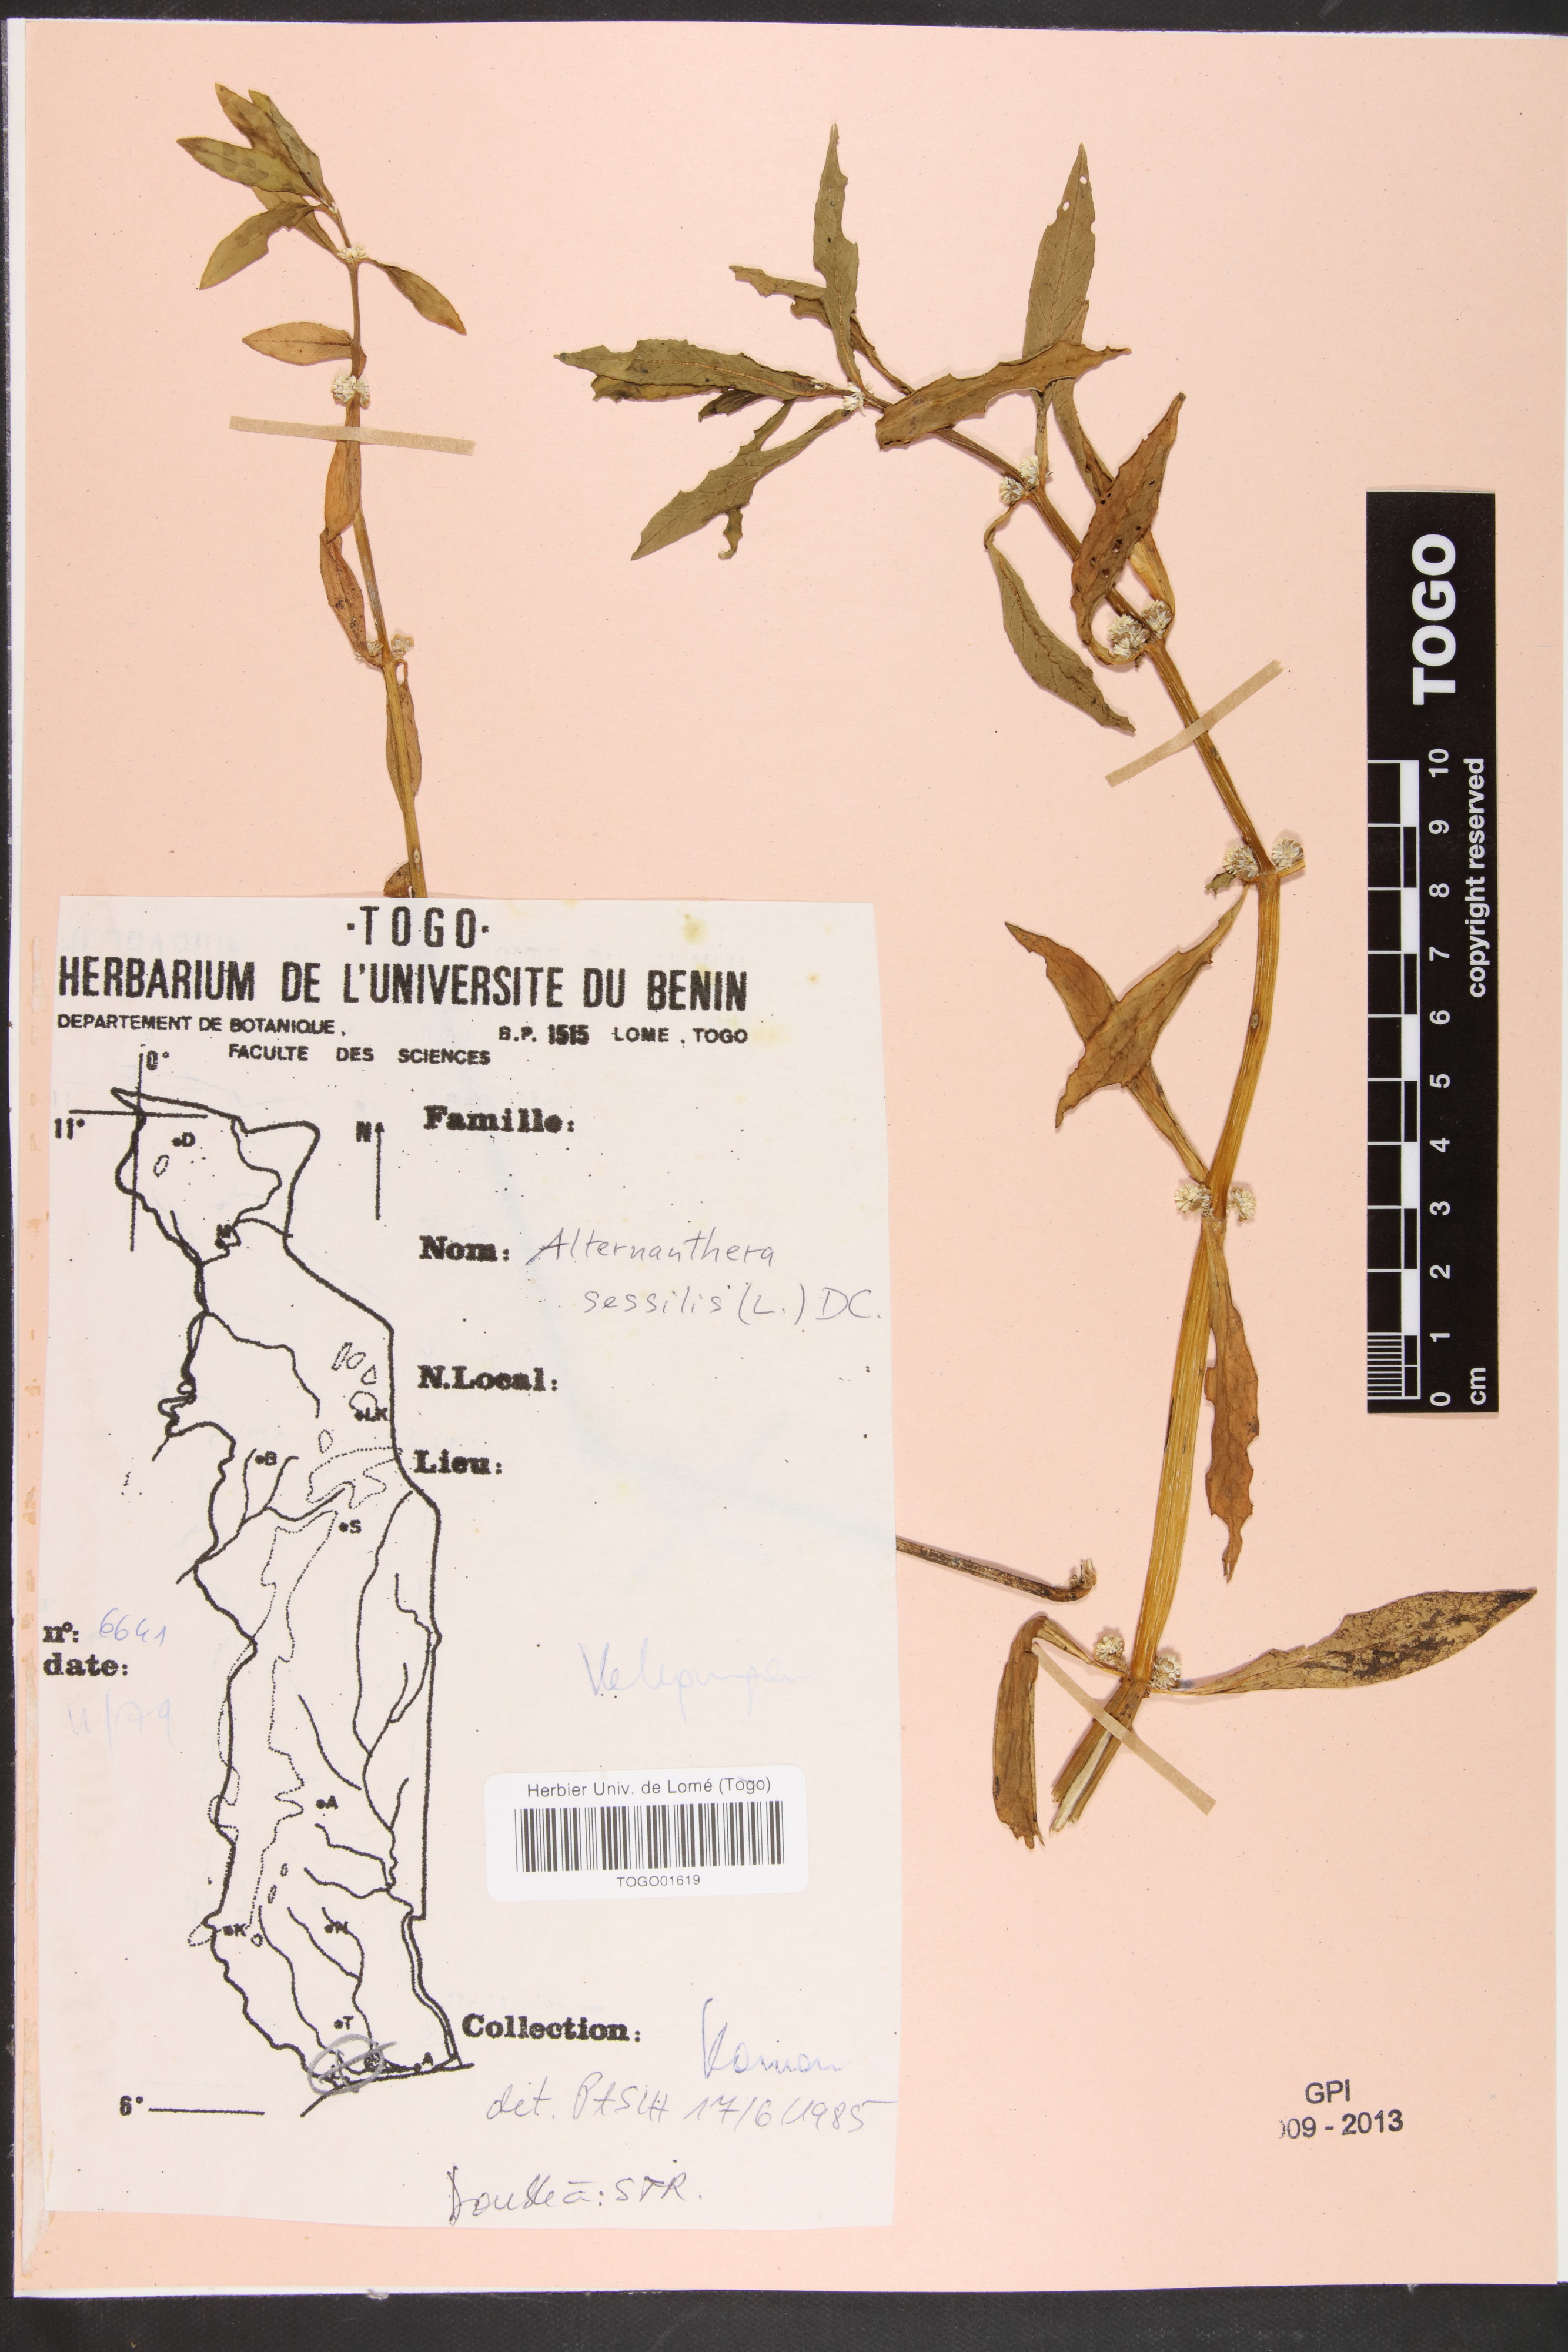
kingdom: Plantae
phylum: Tracheophyta
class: Magnoliopsida
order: Caryophyllales
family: Amaranthaceae
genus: Alternanthera
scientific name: Alternanthera sessilis
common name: Sessile joyweed
